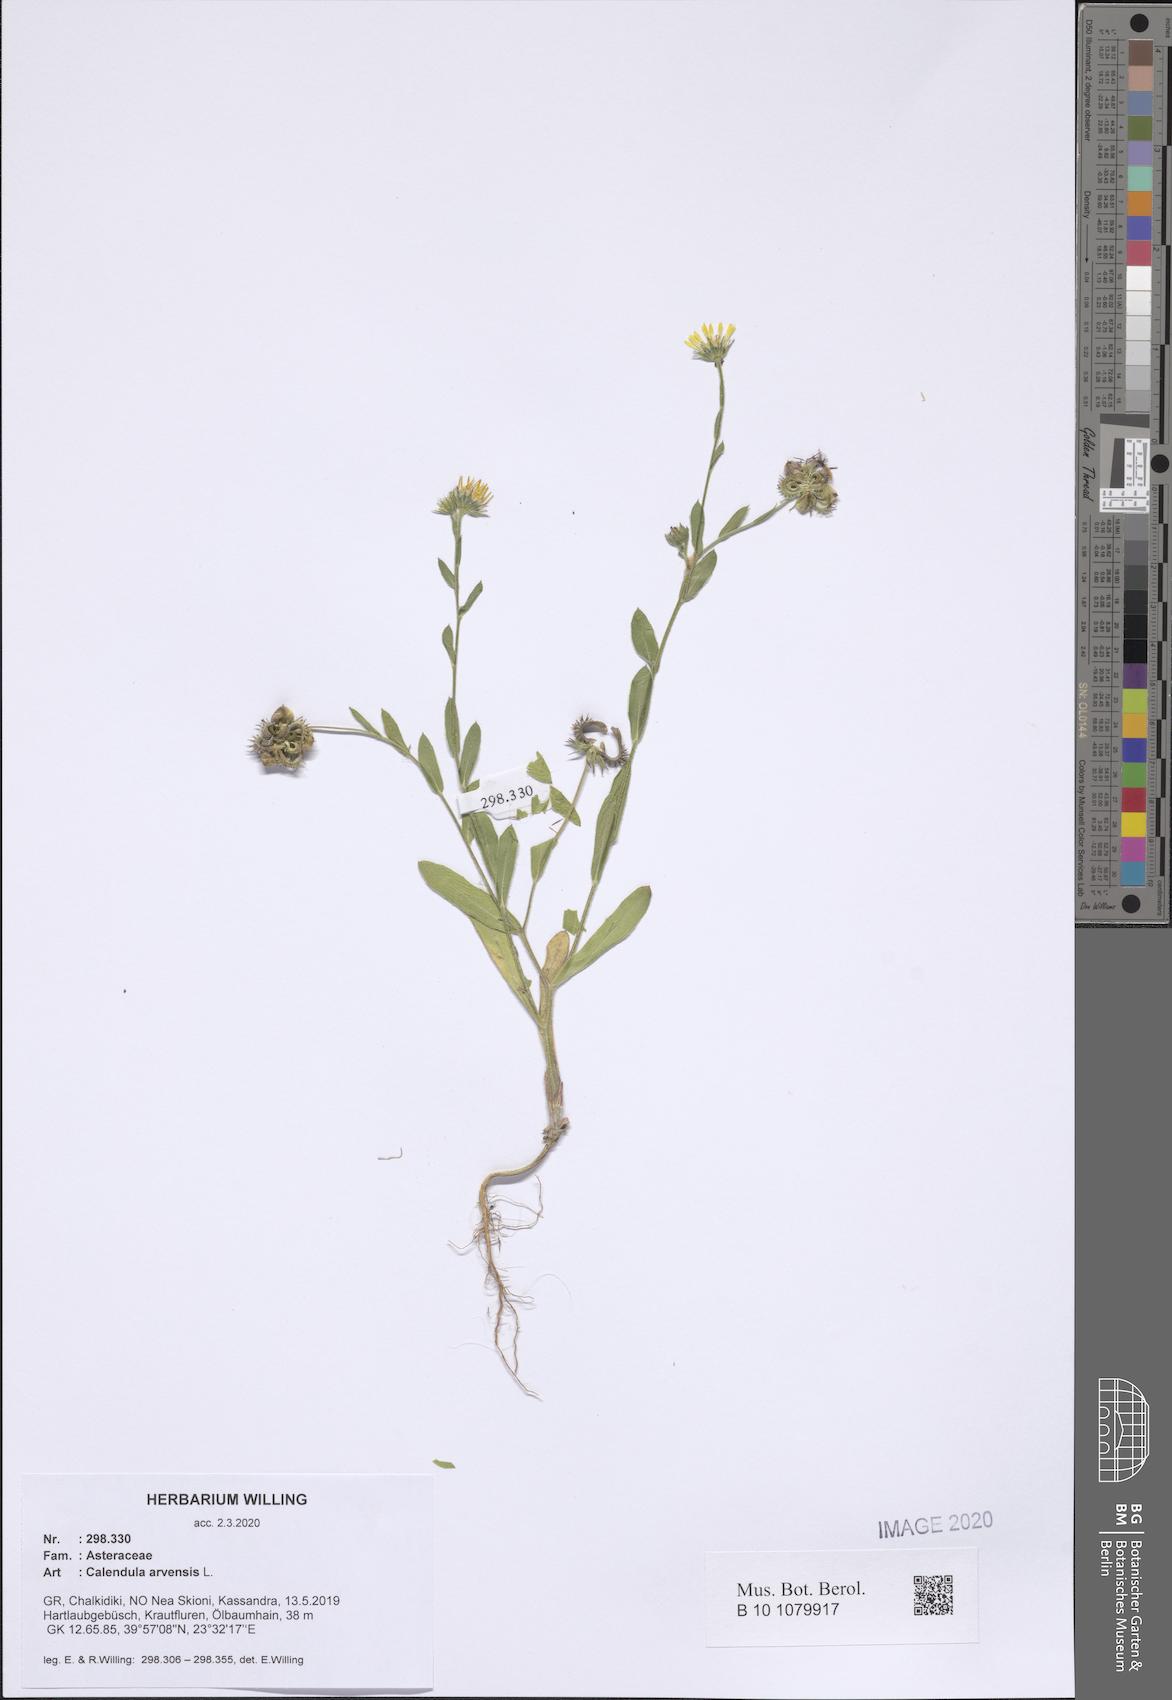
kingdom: Plantae
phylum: Tracheophyta
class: Magnoliopsida
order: Asterales
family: Asteraceae
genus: Calendula
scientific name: Calendula arvensis
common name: Field marigold
